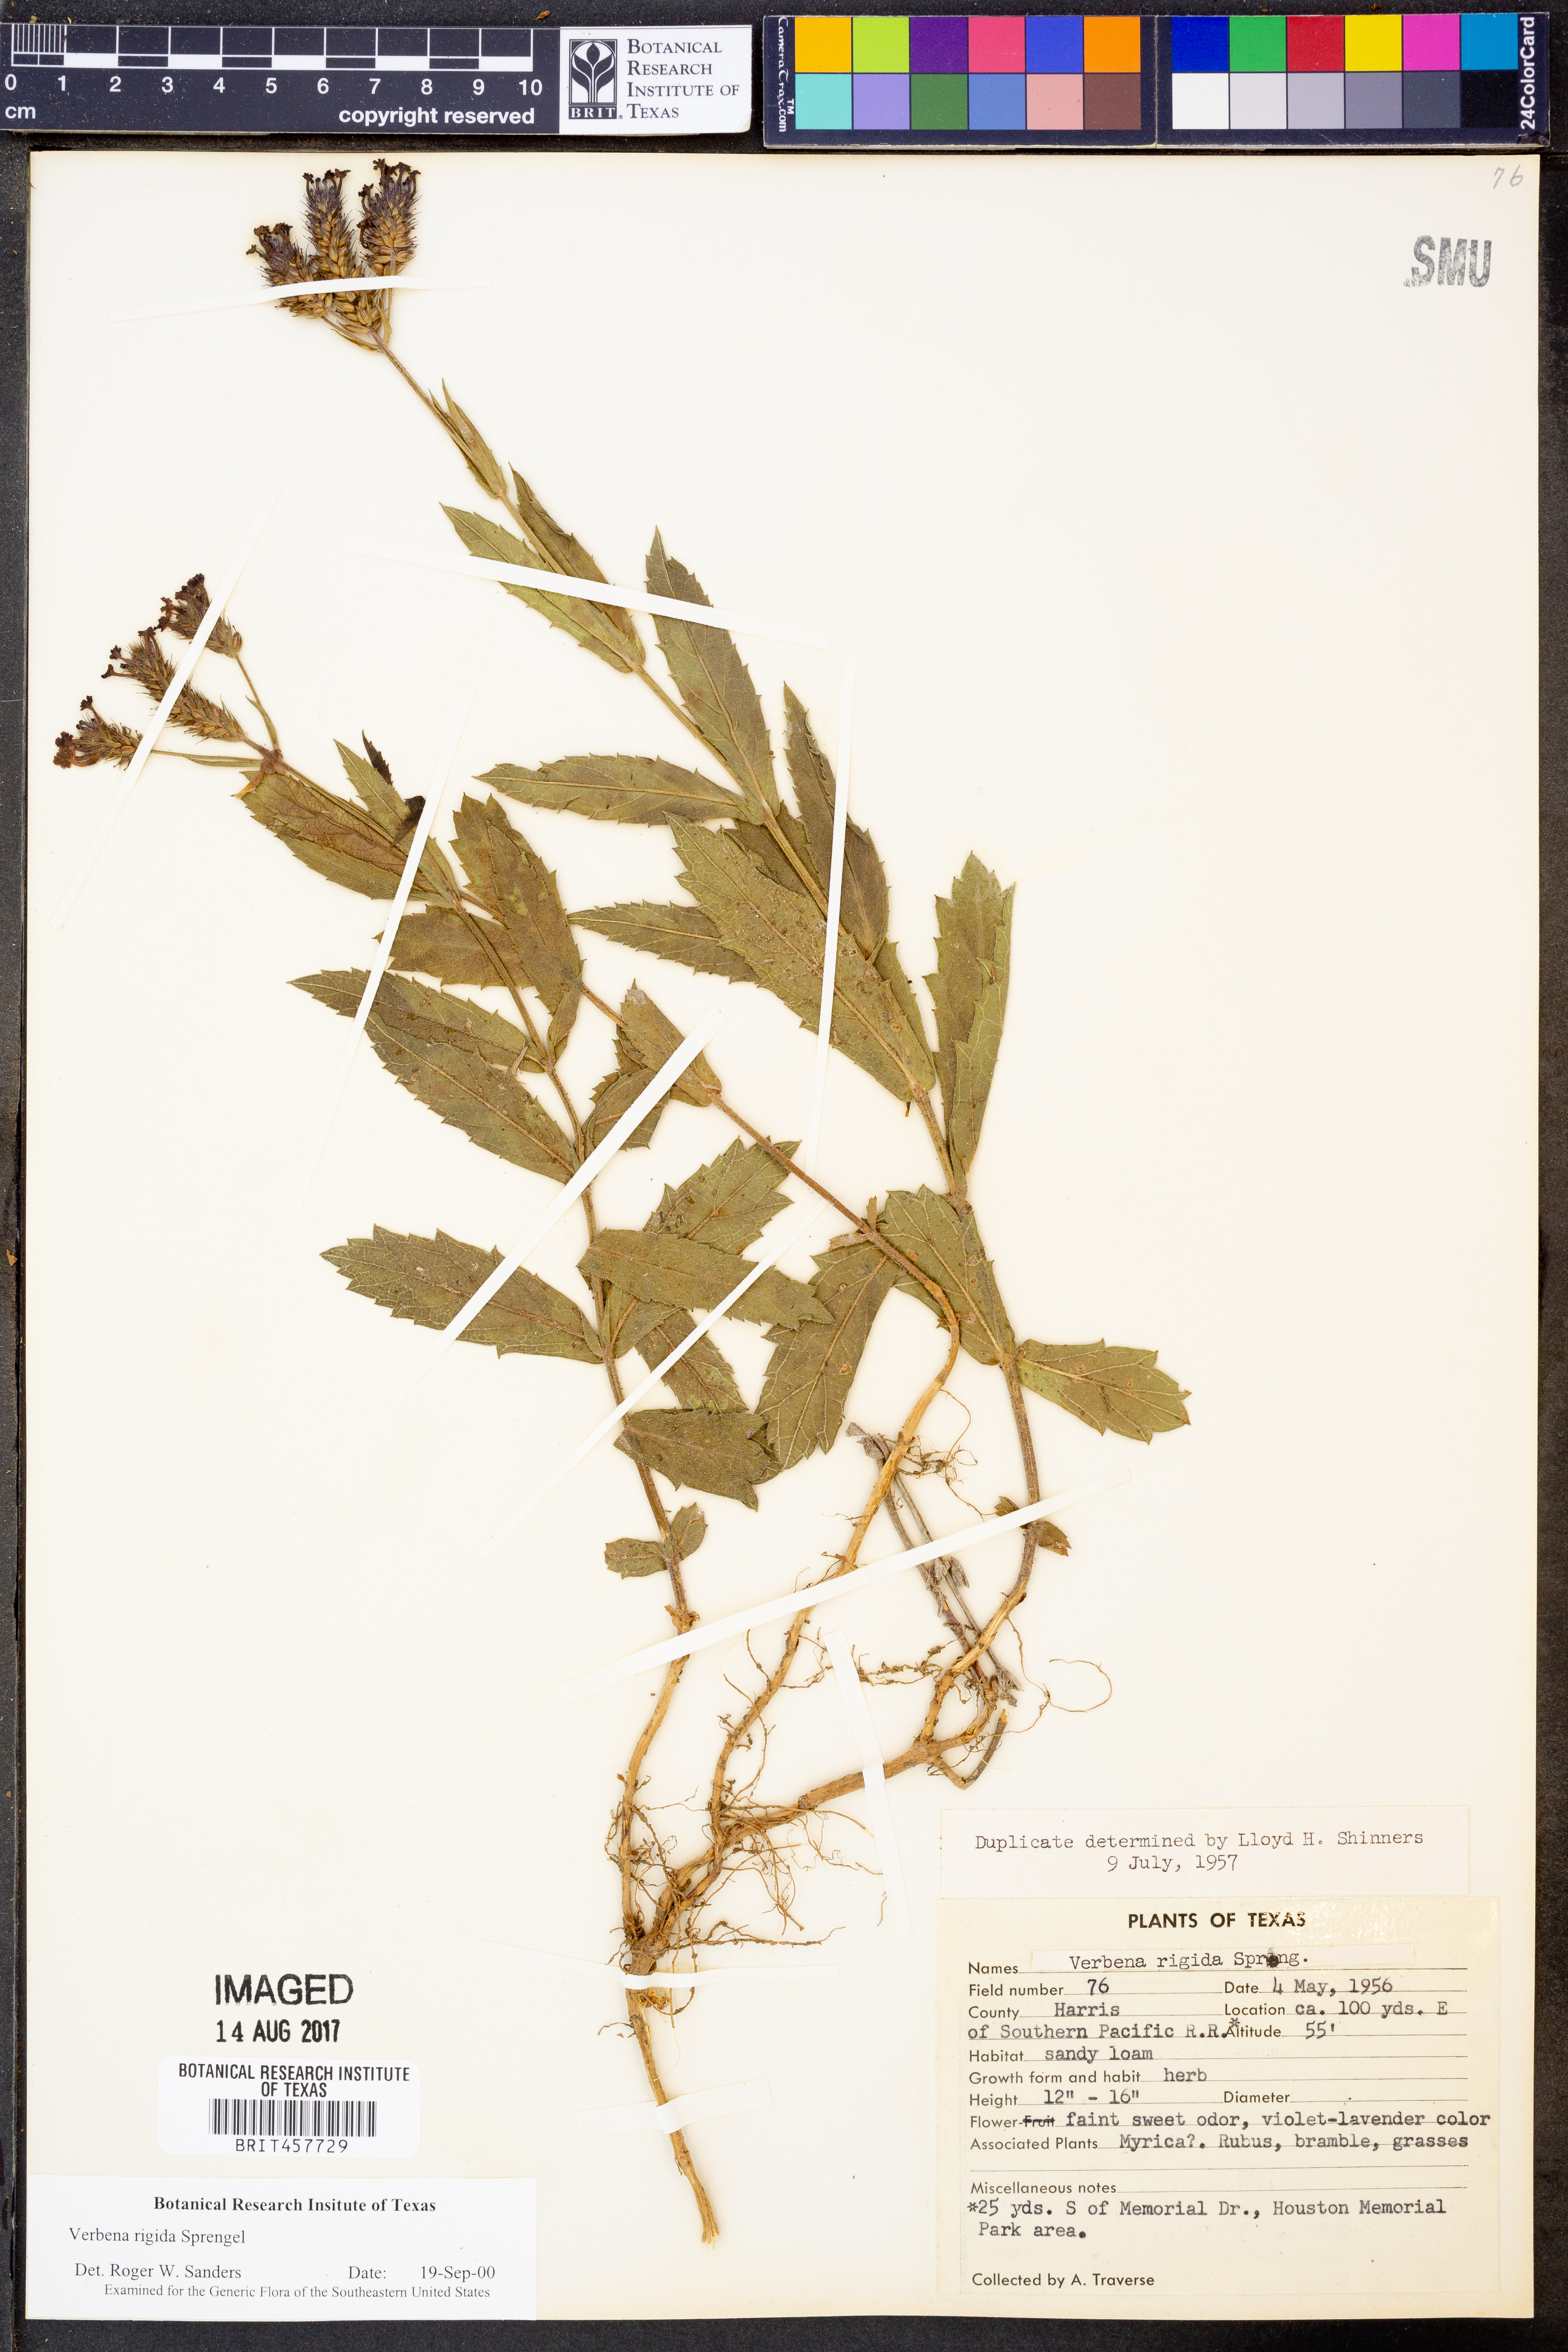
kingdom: Plantae
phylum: Tracheophyta
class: Magnoliopsida
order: Lamiales
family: Verbenaceae
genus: Verbena
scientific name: Verbena rigida
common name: Slender vervain
